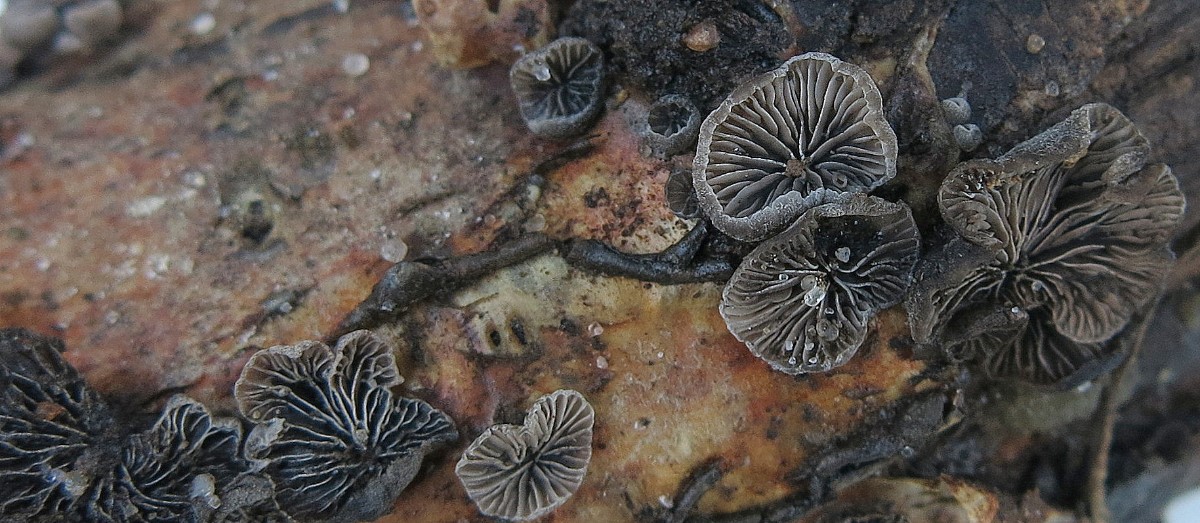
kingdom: Fungi
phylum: Basidiomycota
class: Agaricomycetes
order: Agaricales
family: Pleurotaceae
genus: Resupinatus
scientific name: Resupinatus applicatus
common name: lysfiltet barkhat
